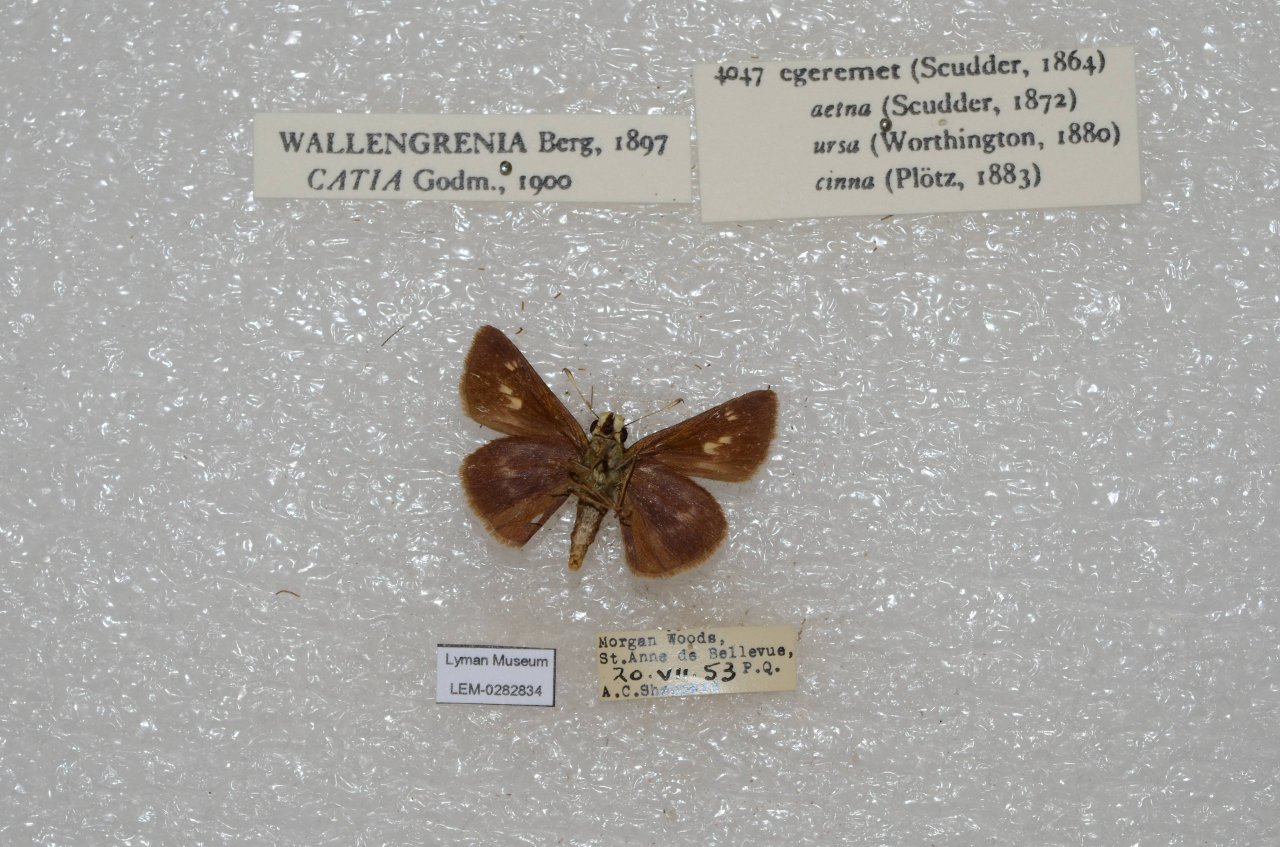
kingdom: Animalia
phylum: Arthropoda
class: Insecta
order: Lepidoptera
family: Hesperiidae
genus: Polites
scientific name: Polites egeremet
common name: Northern Broken-Dash
